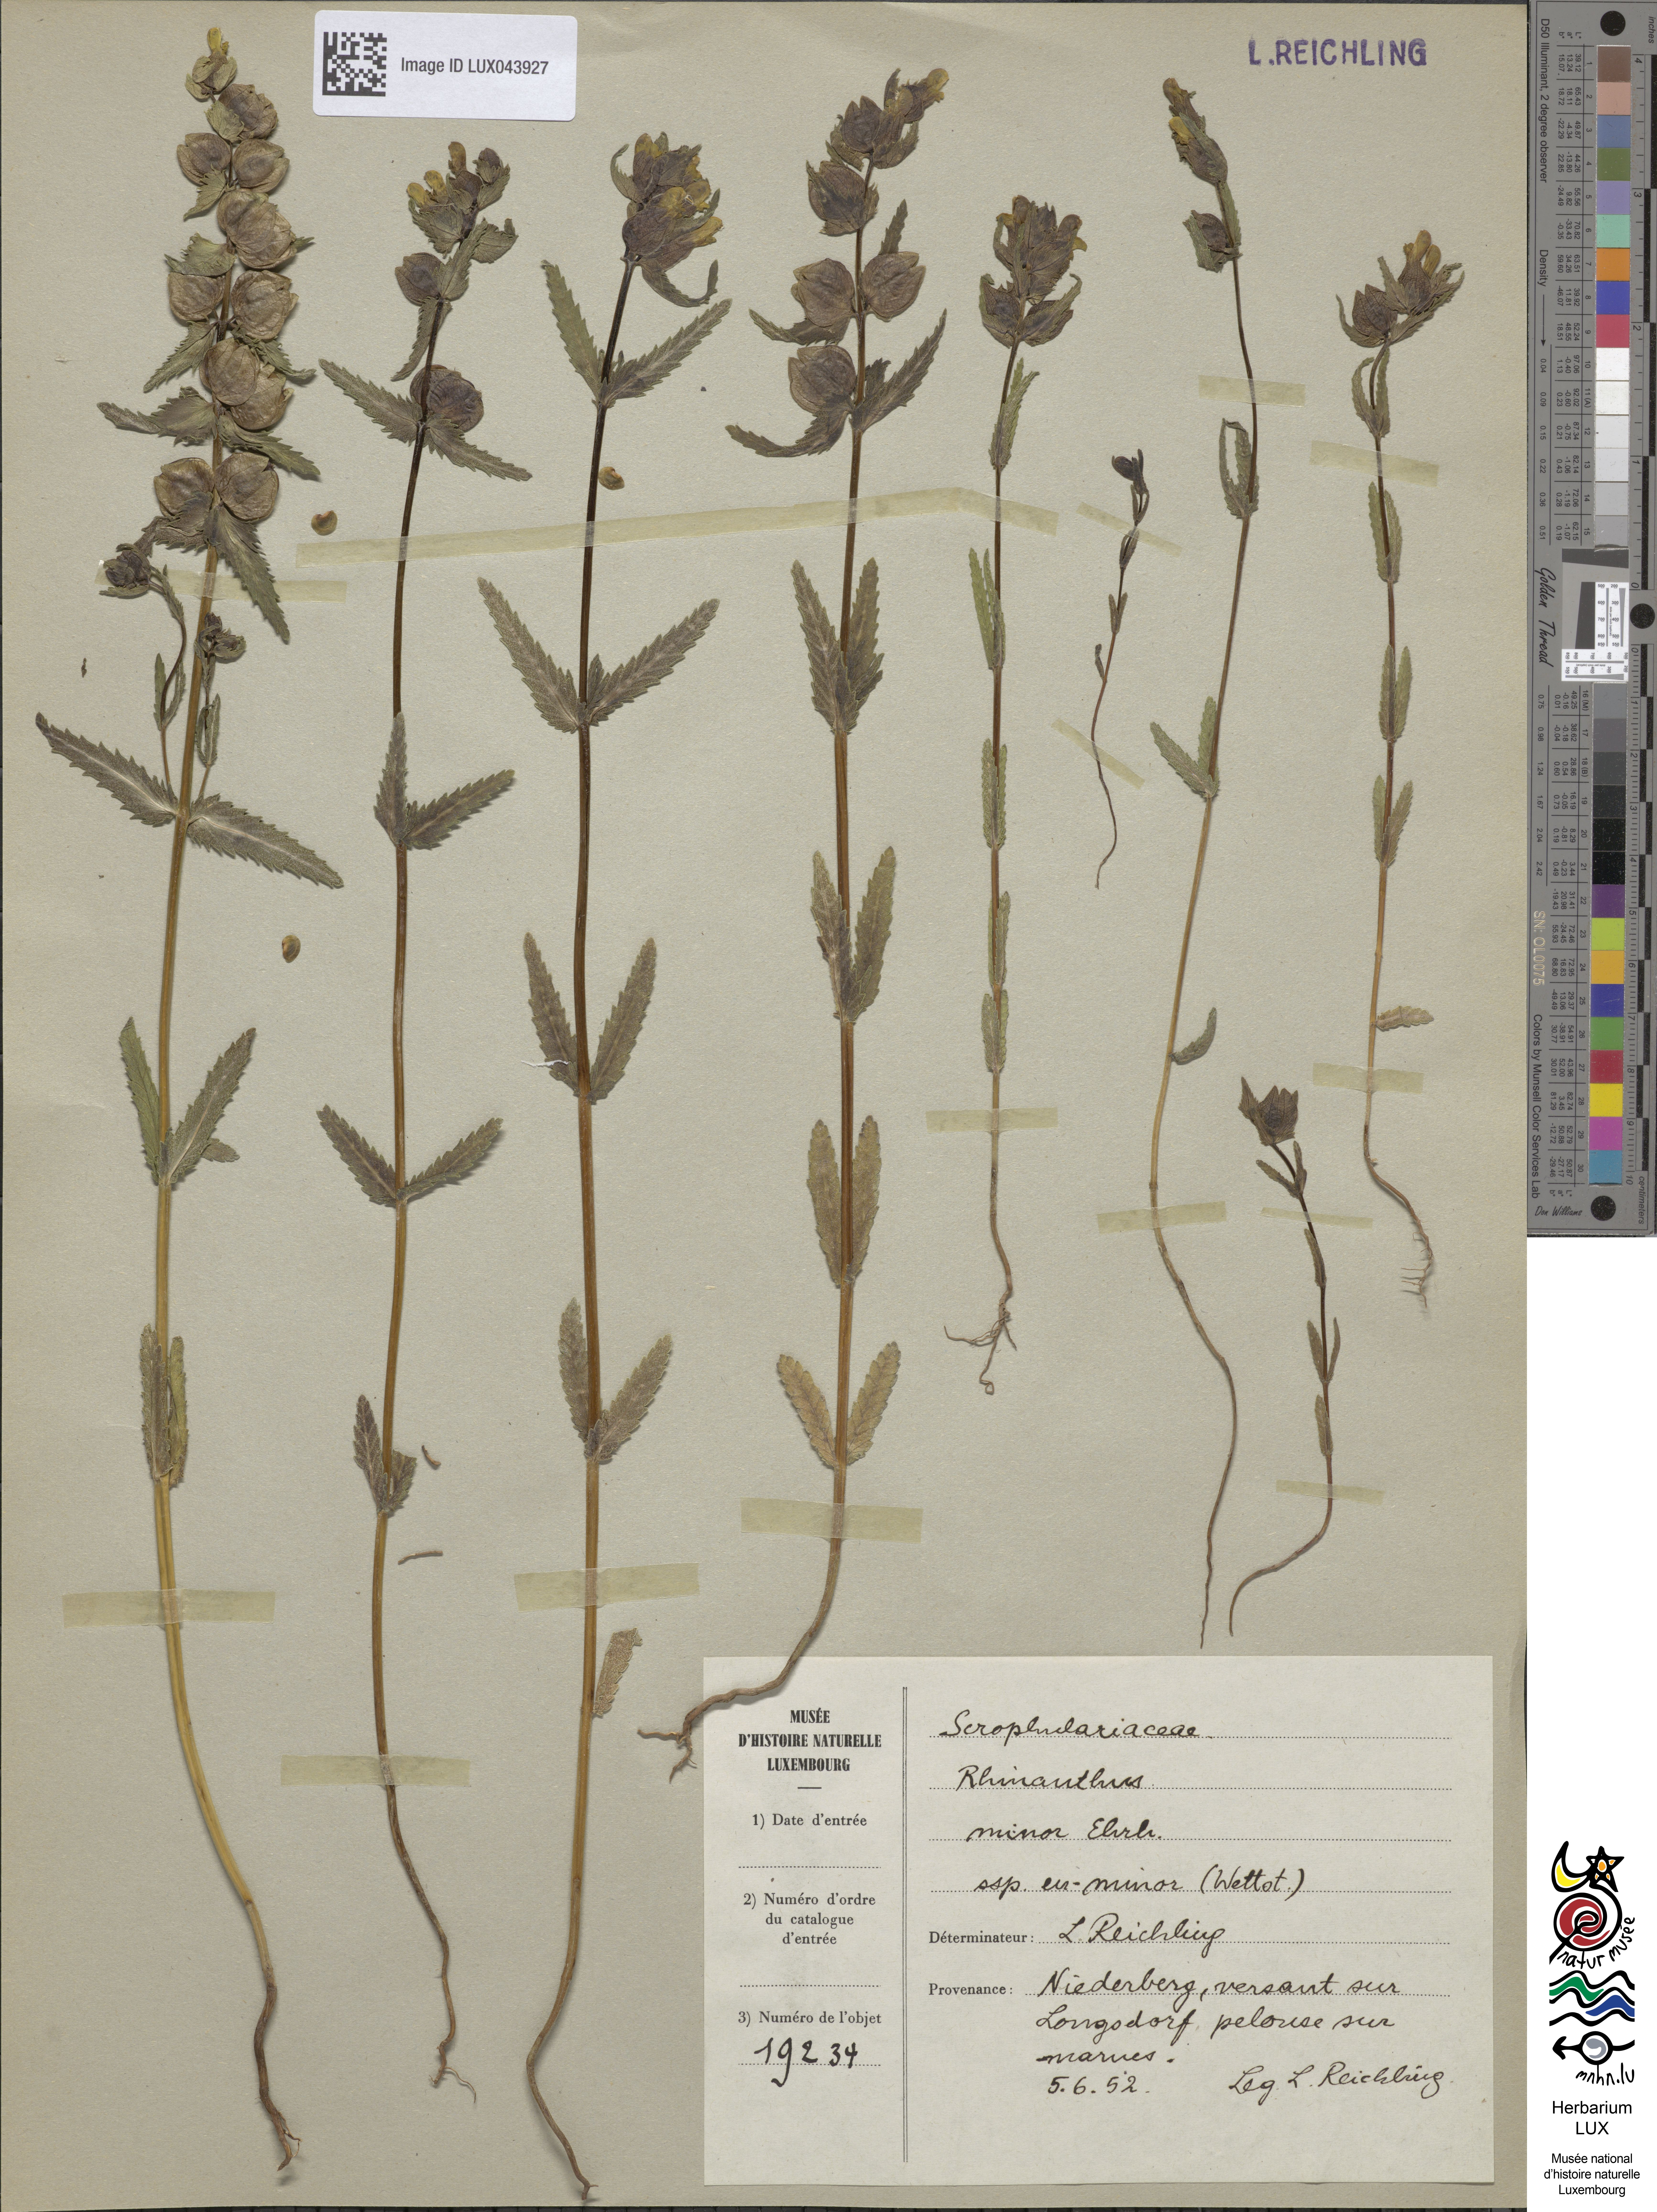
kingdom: Plantae
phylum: Tracheophyta
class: Magnoliopsida
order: Lamiales
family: Orobanchaceae
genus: Rhinanthus
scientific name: Rhinanthus riphaeus
